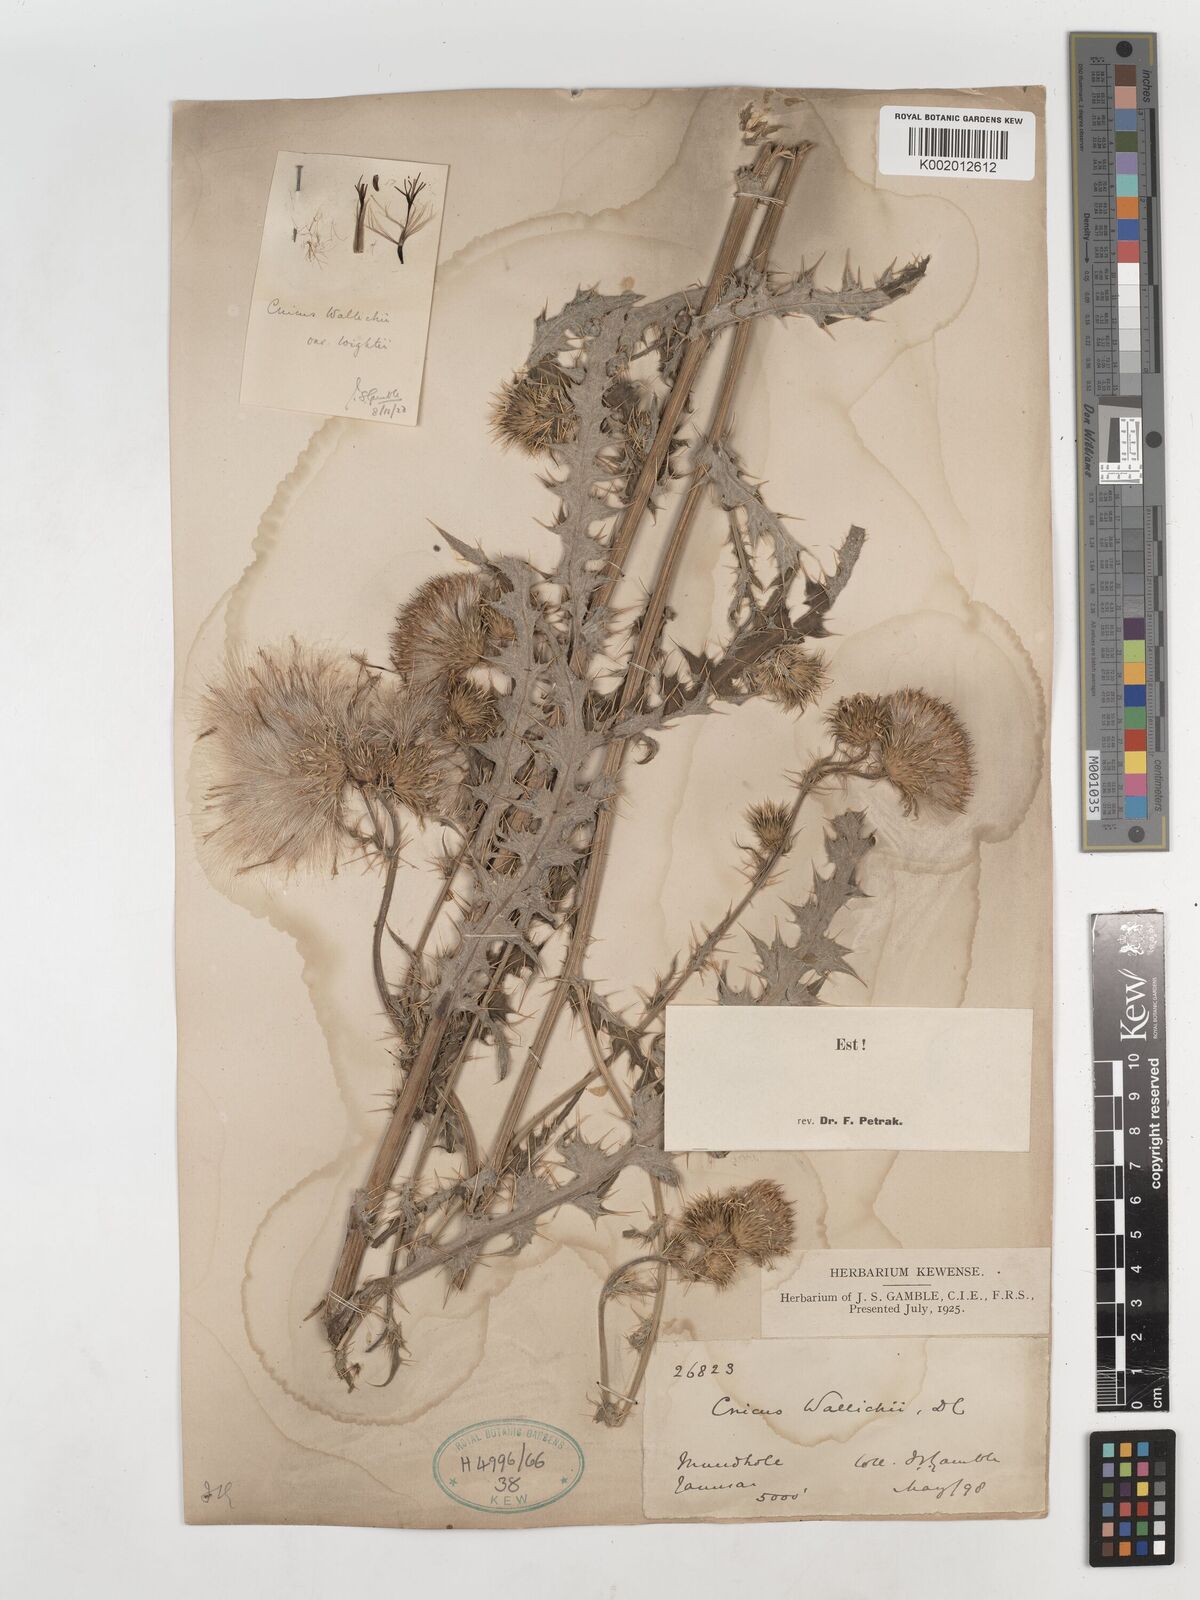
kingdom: Plantae
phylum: Tracheophyta
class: Magnoliopsida
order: Asterales
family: Asteraceae
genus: Cirsium
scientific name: Cirsium wallichii
